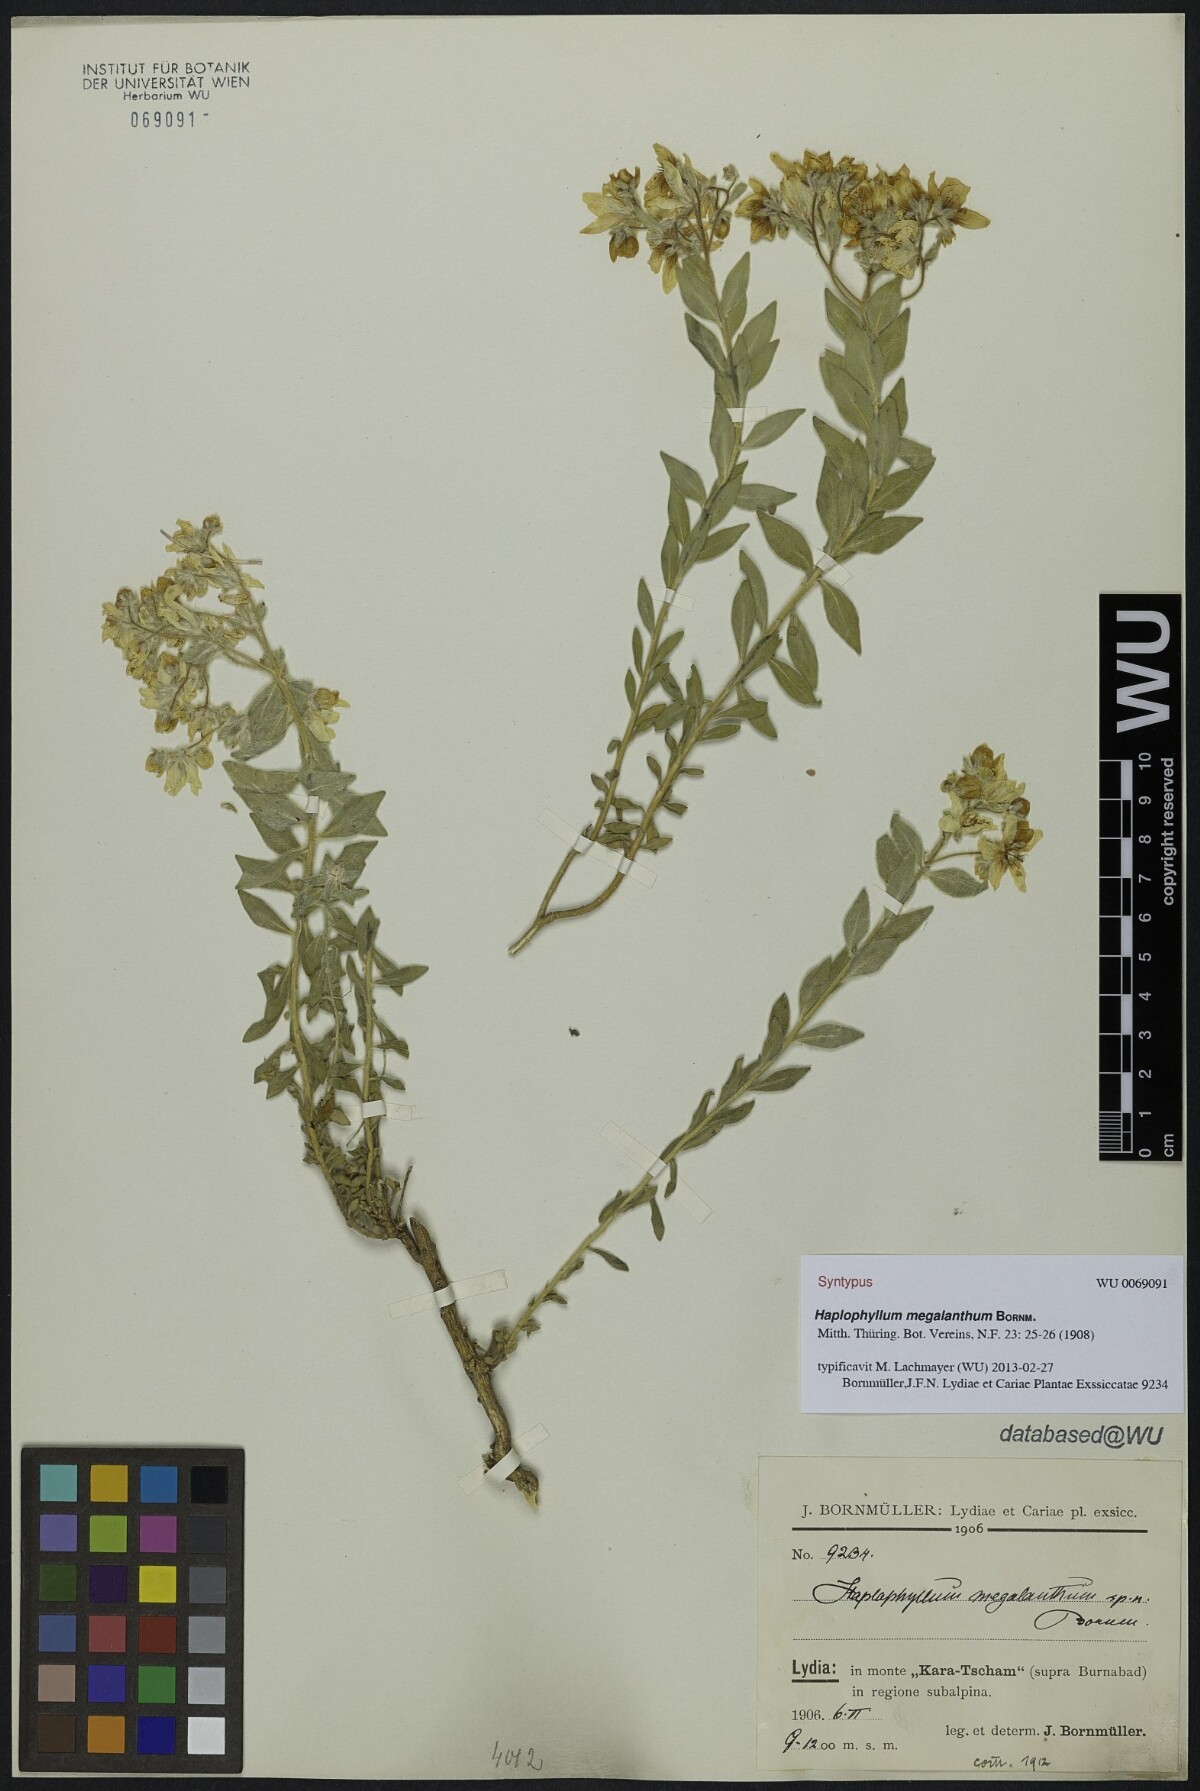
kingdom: Plantae
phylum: Tracheophyta
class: Magnoliopsida
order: Sapindales
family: Rutaceae
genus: Haplophyllum
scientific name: Haplophyllum megalanthum
